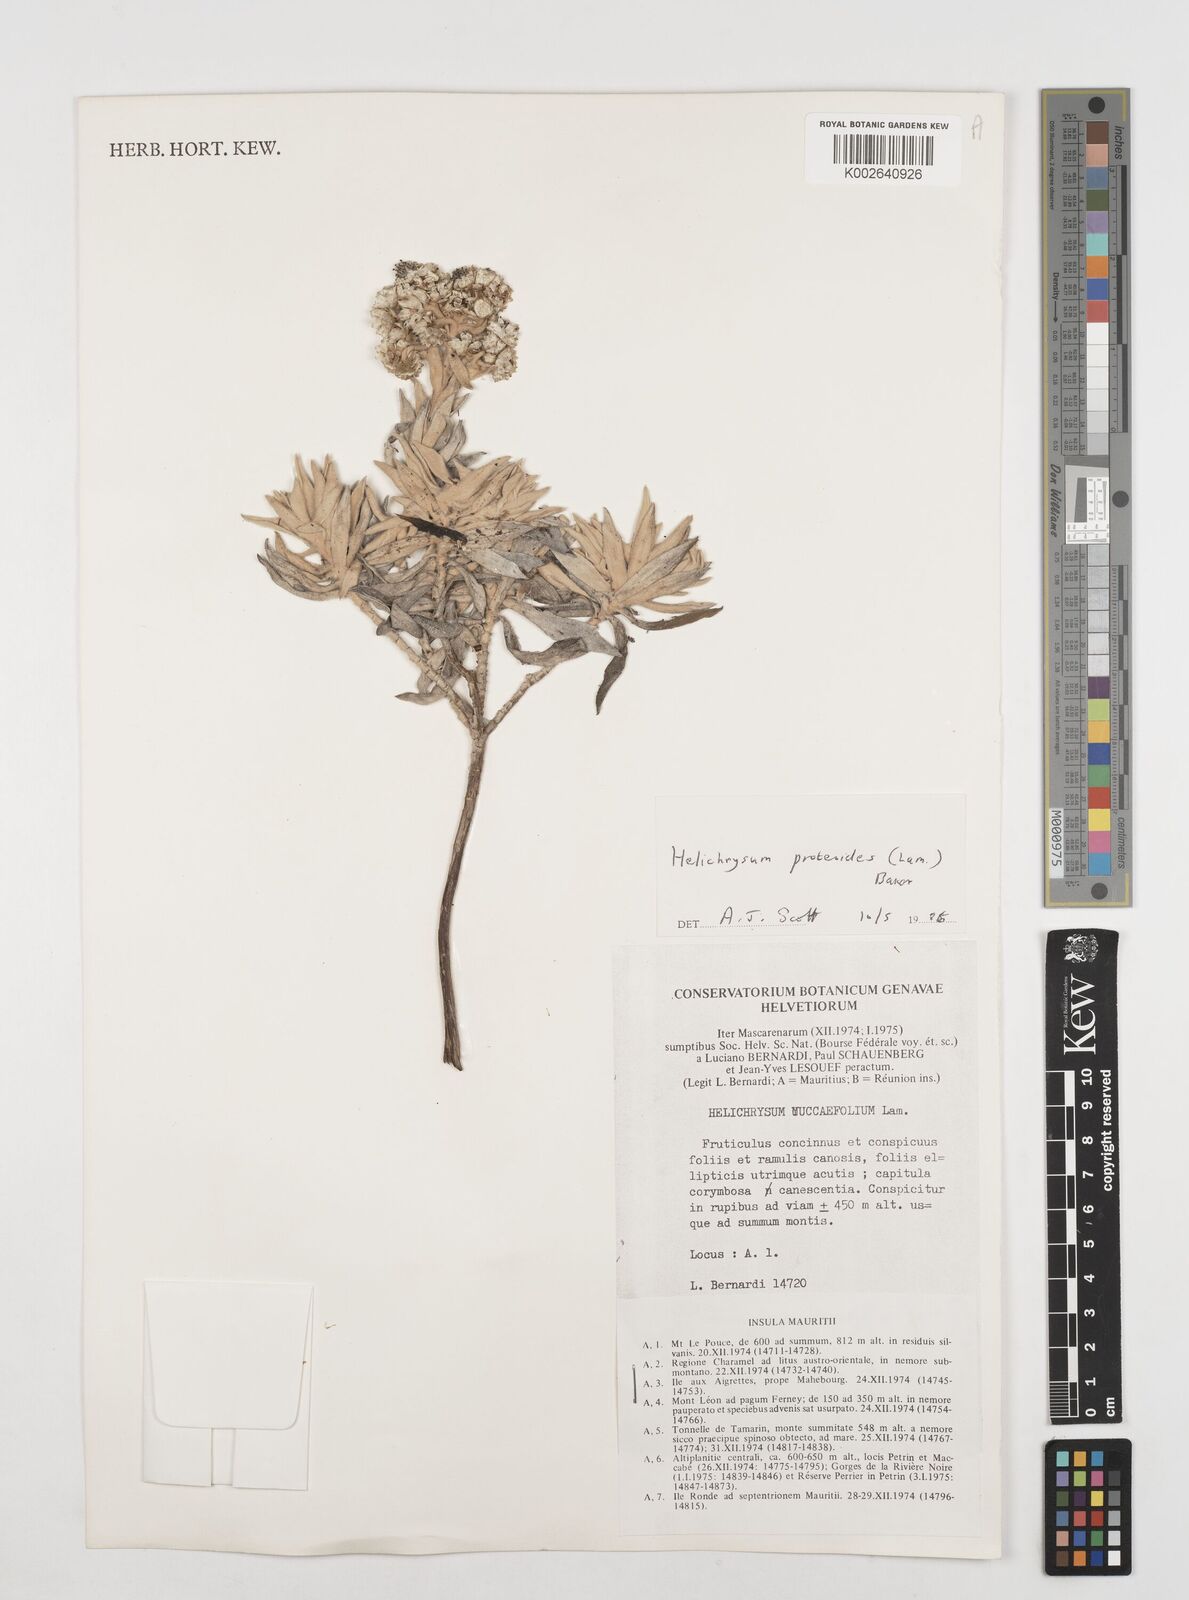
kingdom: Plantae
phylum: Tracheophyta
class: Magnoliopsida
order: Asterales
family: Asteraceae
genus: Helichrysum
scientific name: Helichrysum proteoides
